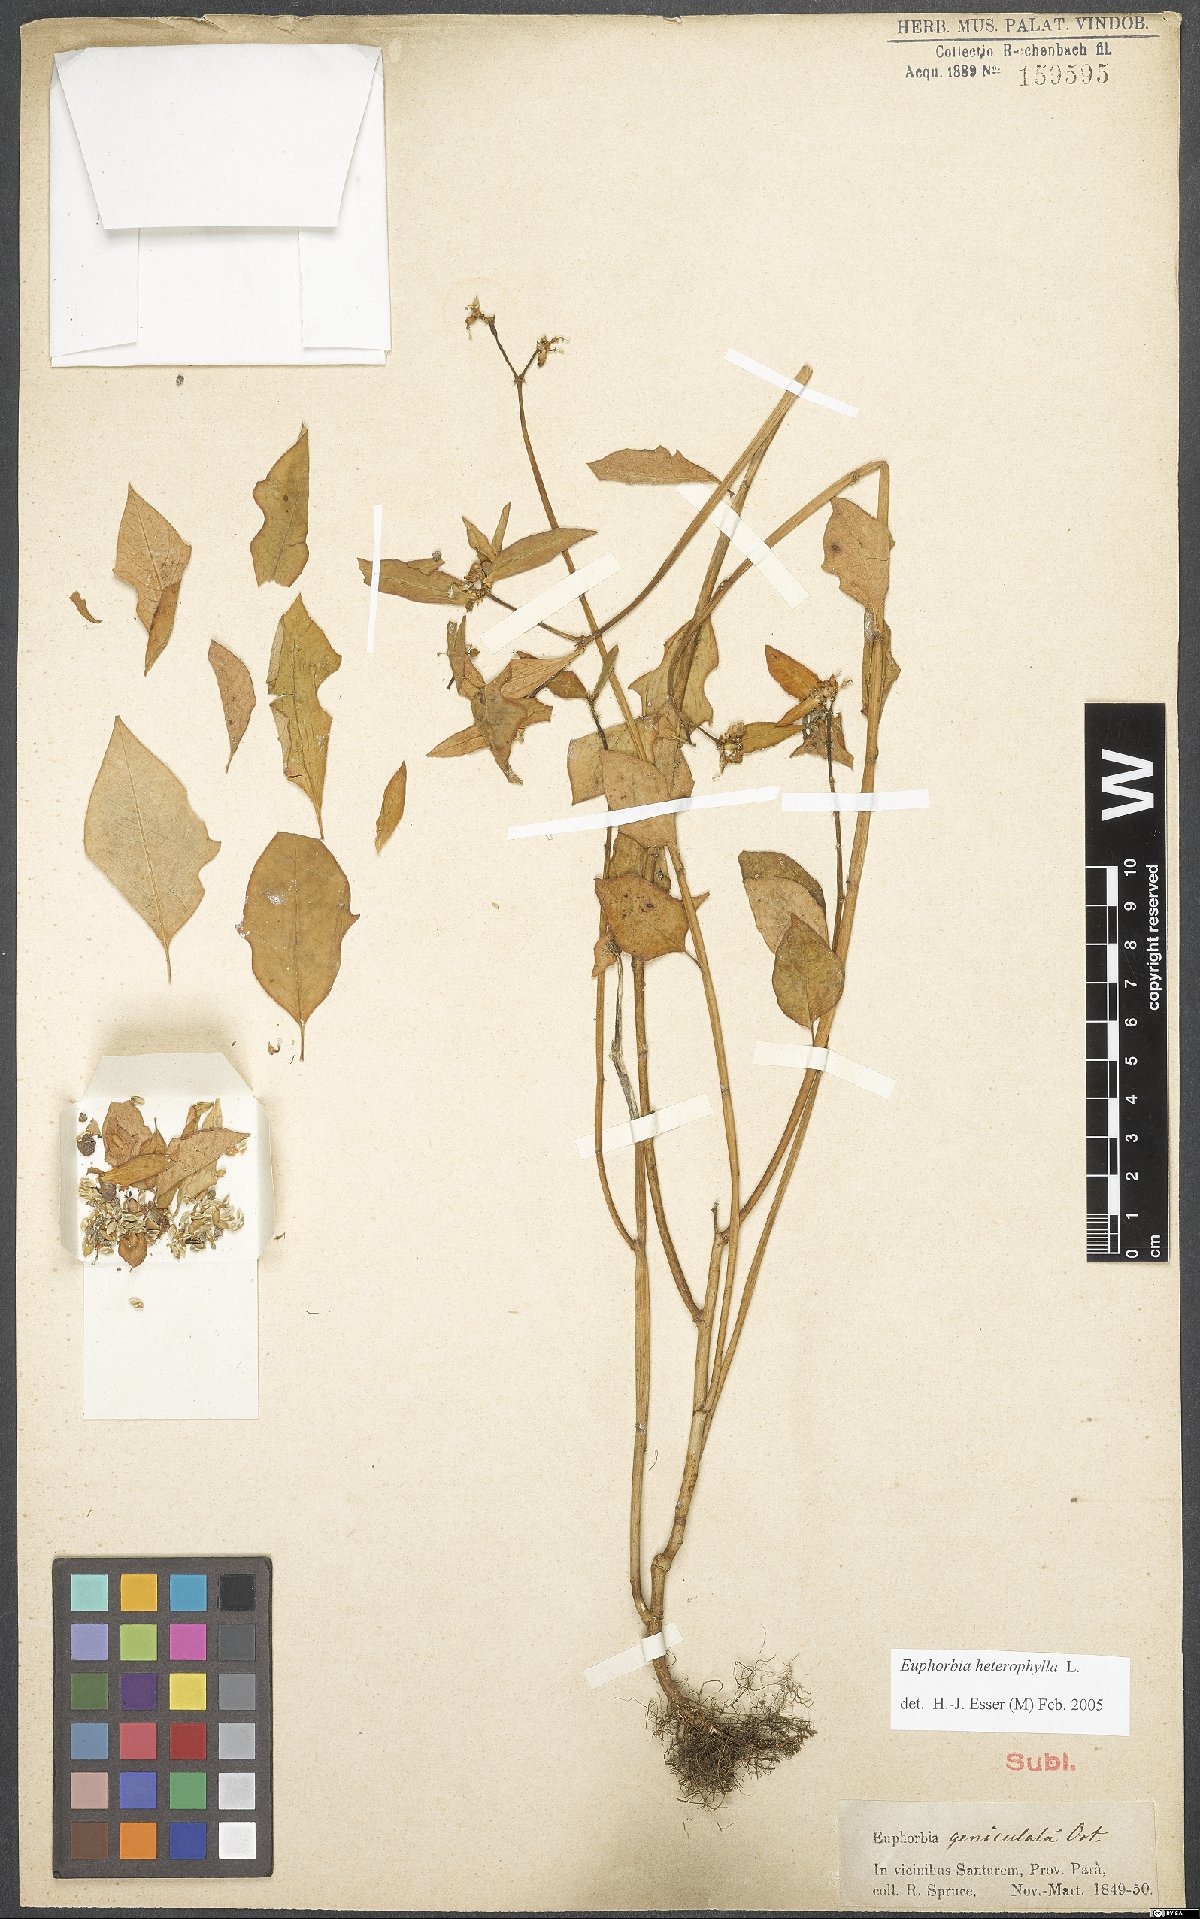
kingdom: Plantae
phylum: Tracheophyta
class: Magnoliopsida
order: Malpighiales
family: Euphorbiaceae
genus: Euphorbia
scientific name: Euphorbia heterophylla
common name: Mexican fireplant
